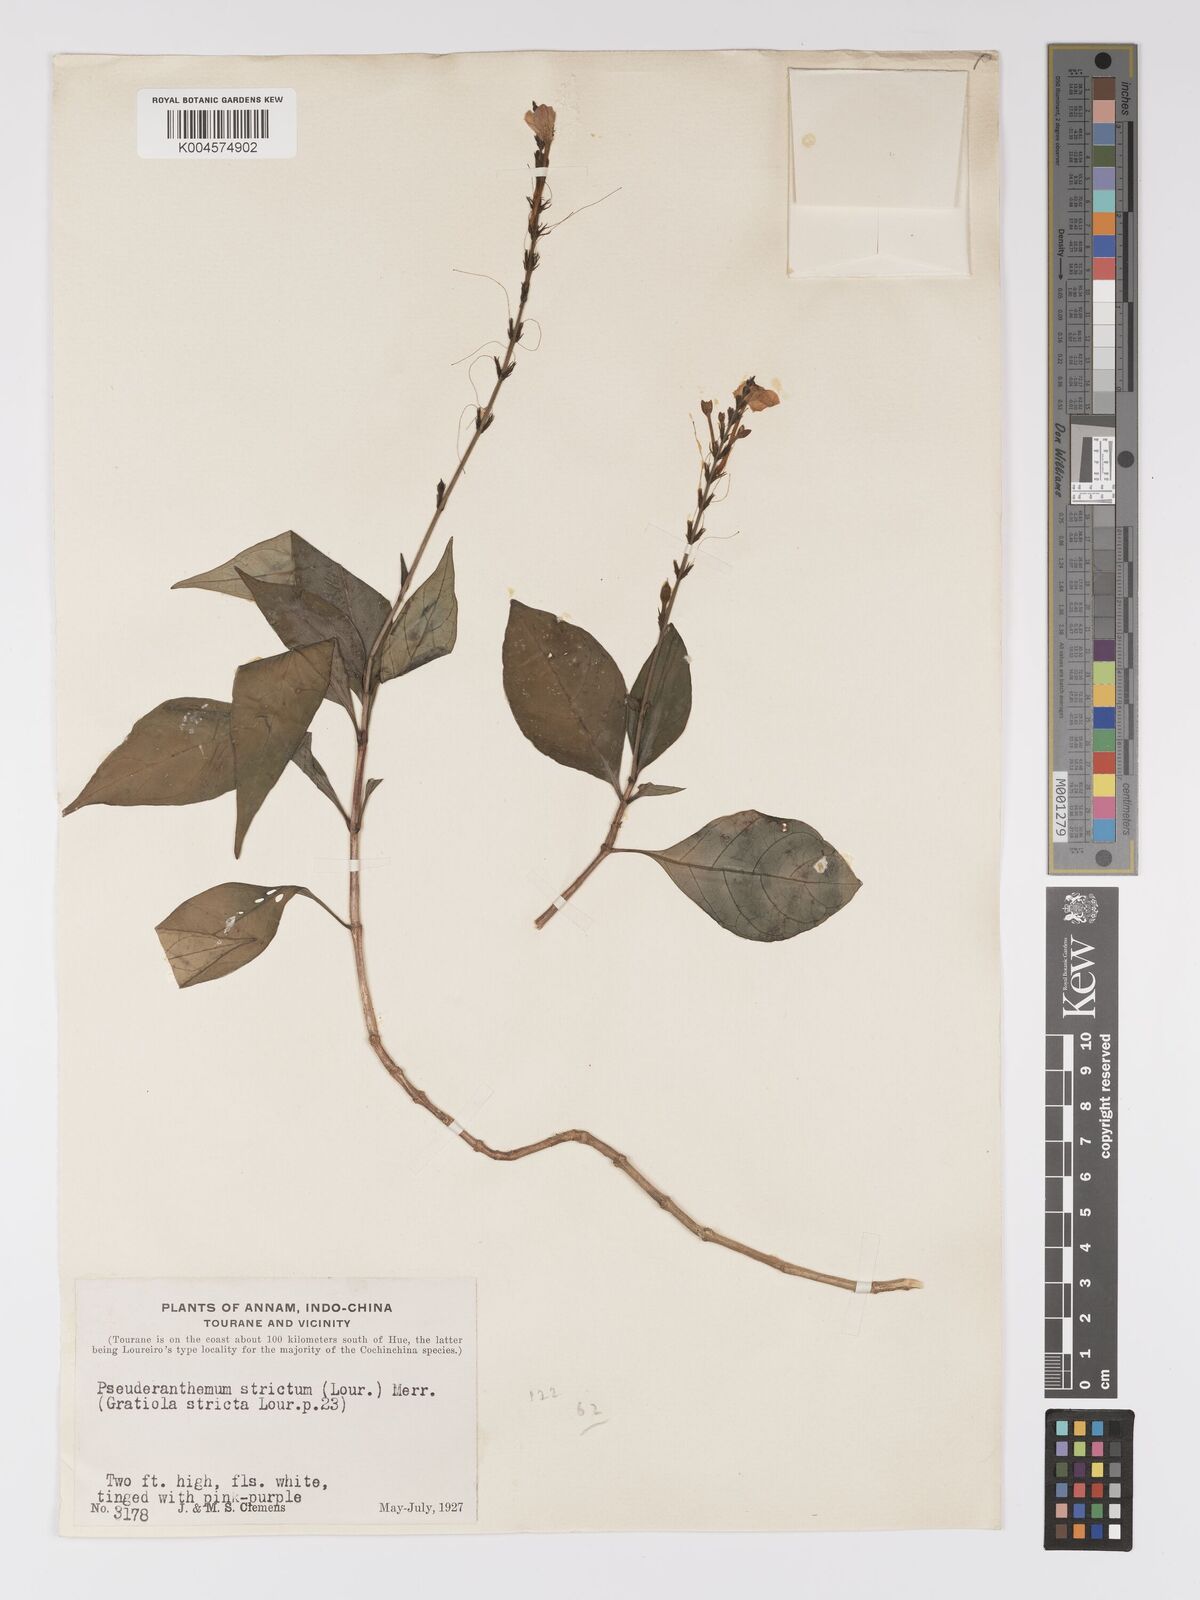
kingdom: Plantae
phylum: Tracheophyta
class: Magnoliopsida
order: Lamiales
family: Acanthaceae
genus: Pseuderanthemum
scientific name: Pseuderanthemum
